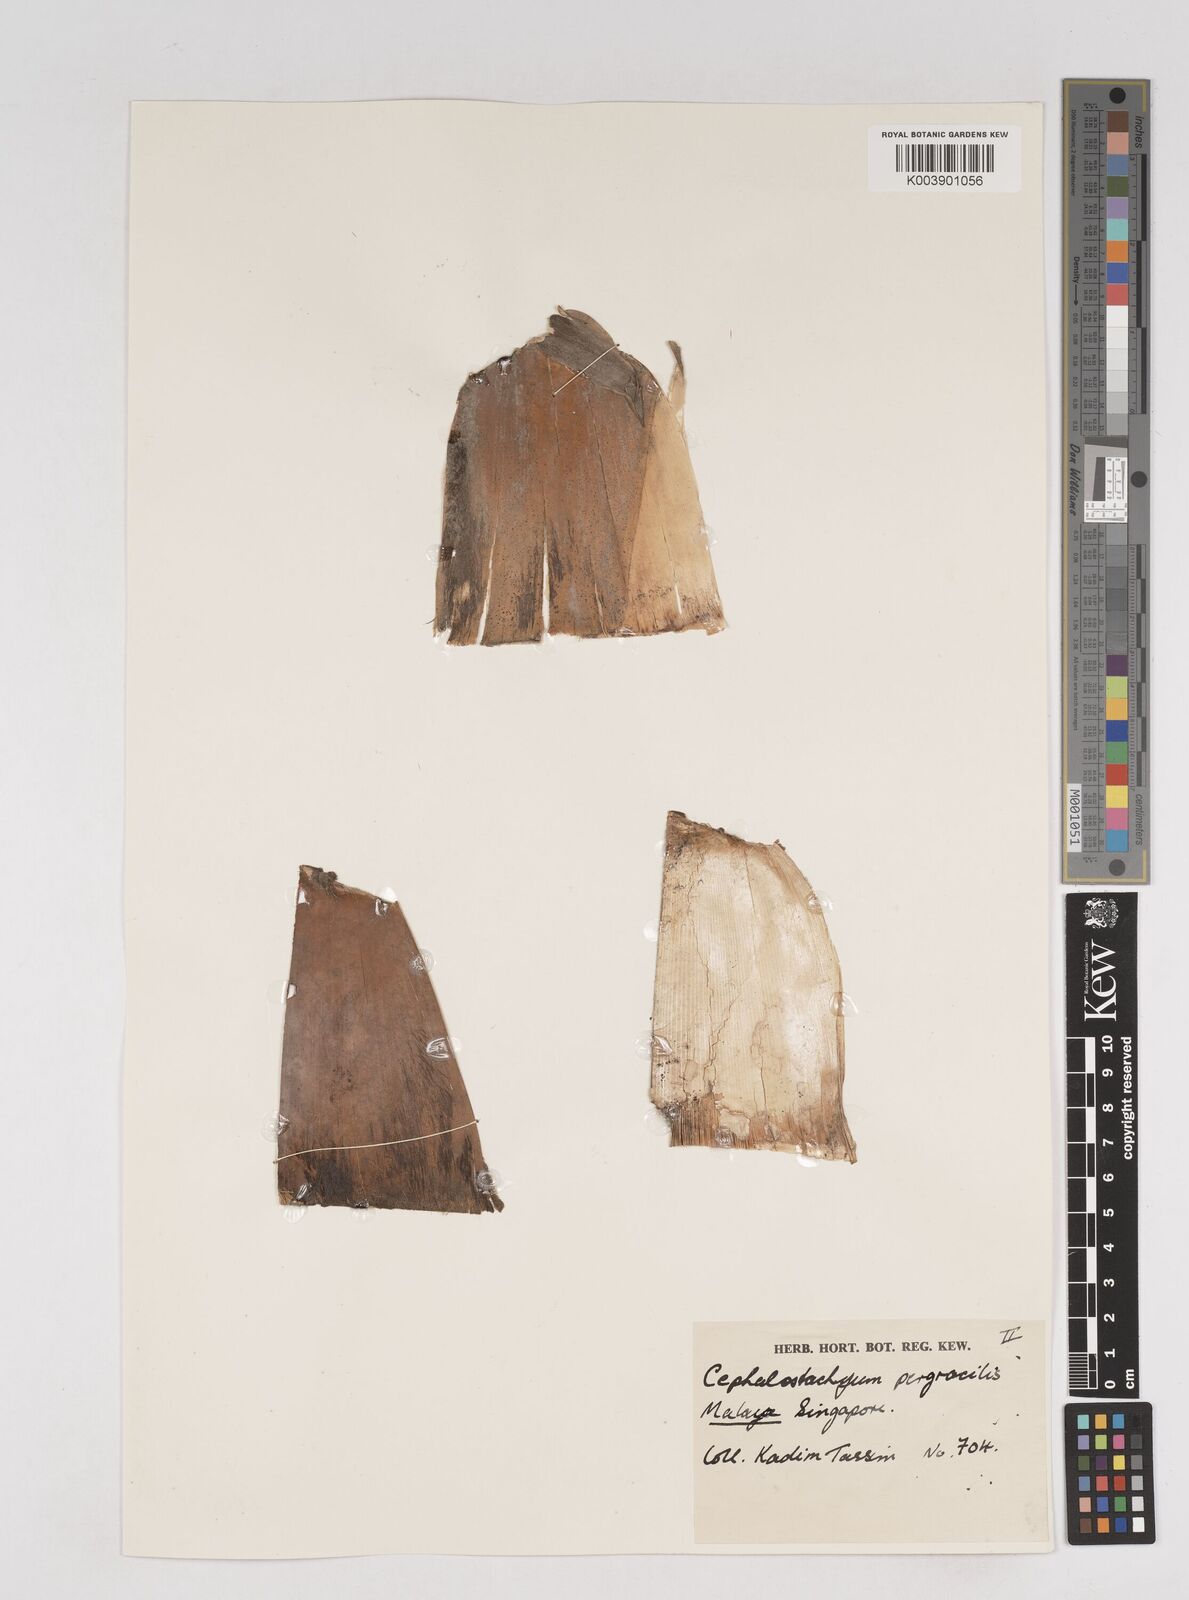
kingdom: Plantae
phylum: Tracheophyta
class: Liliopsida
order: Poales
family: Poaceae
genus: Schizostachyum
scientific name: Schizostachyum pergracile
